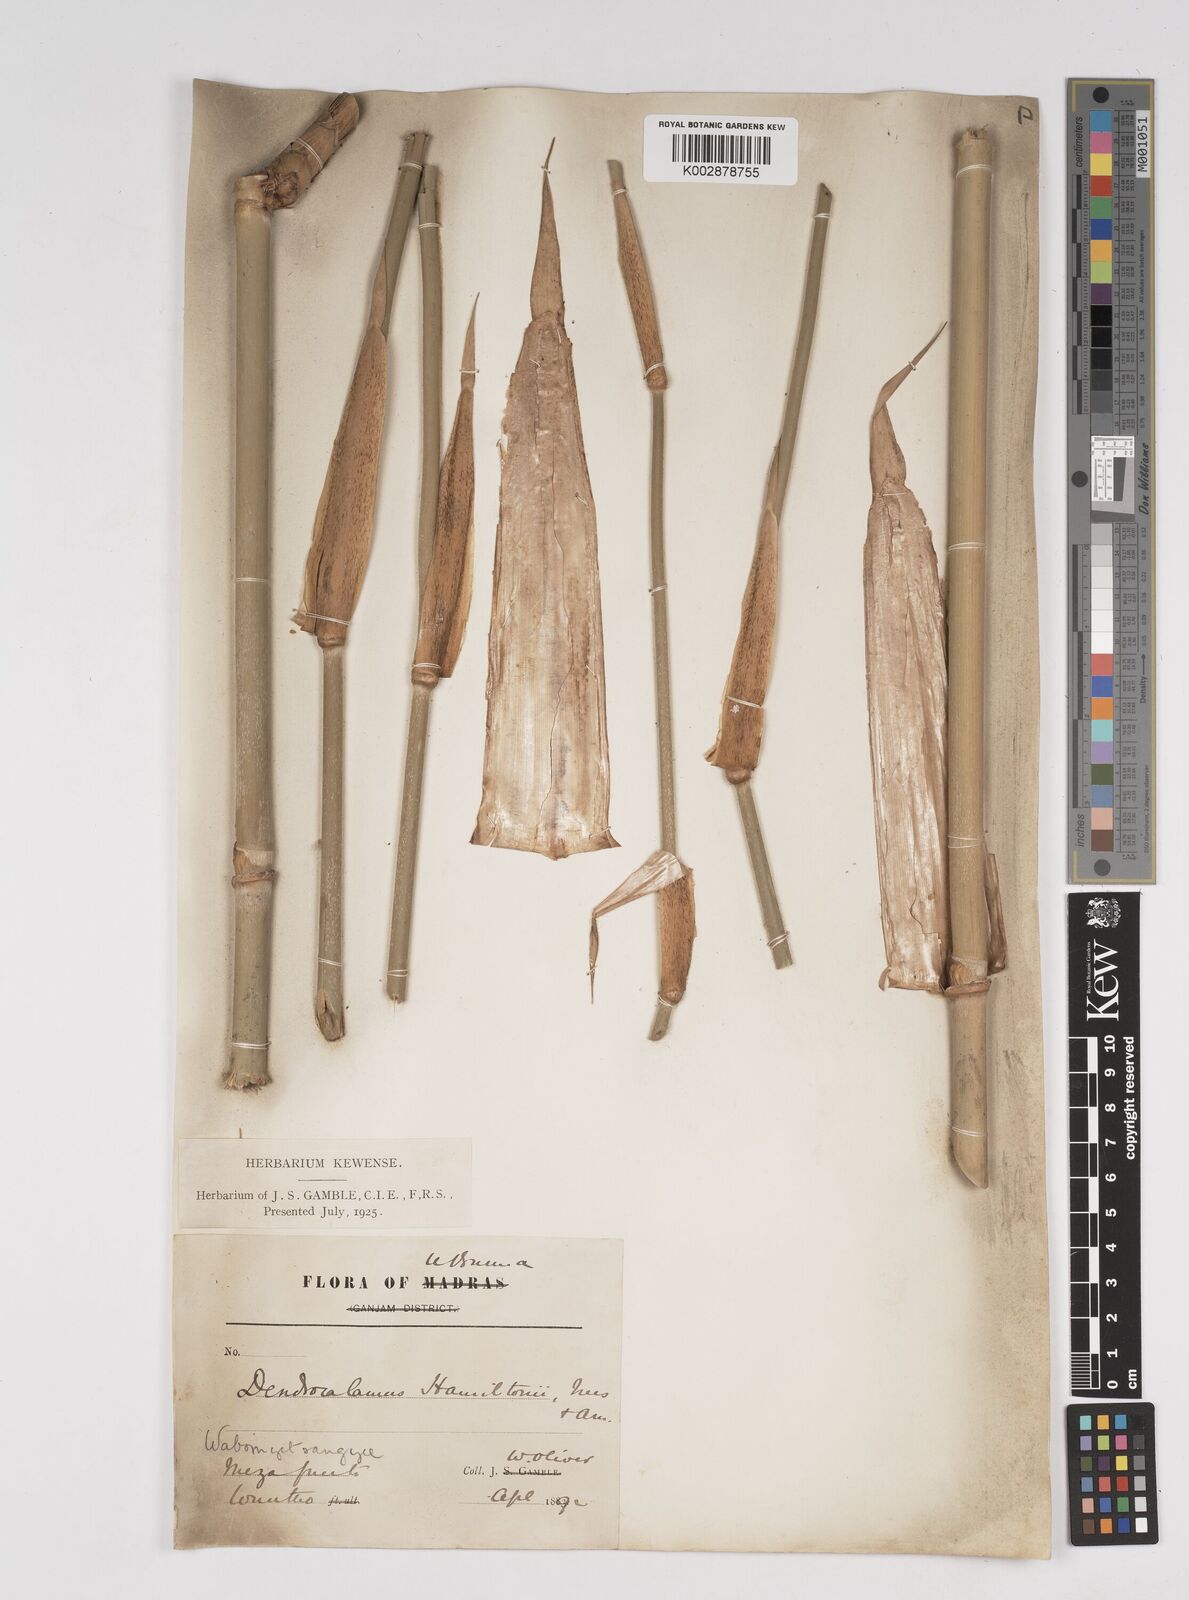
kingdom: Plantae
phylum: Tracheophyta
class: Liliopsida
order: Poales
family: Poaceae
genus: Dendrocalamus
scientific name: Dendrocalamus hamiltonii
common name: Tama bamboo
